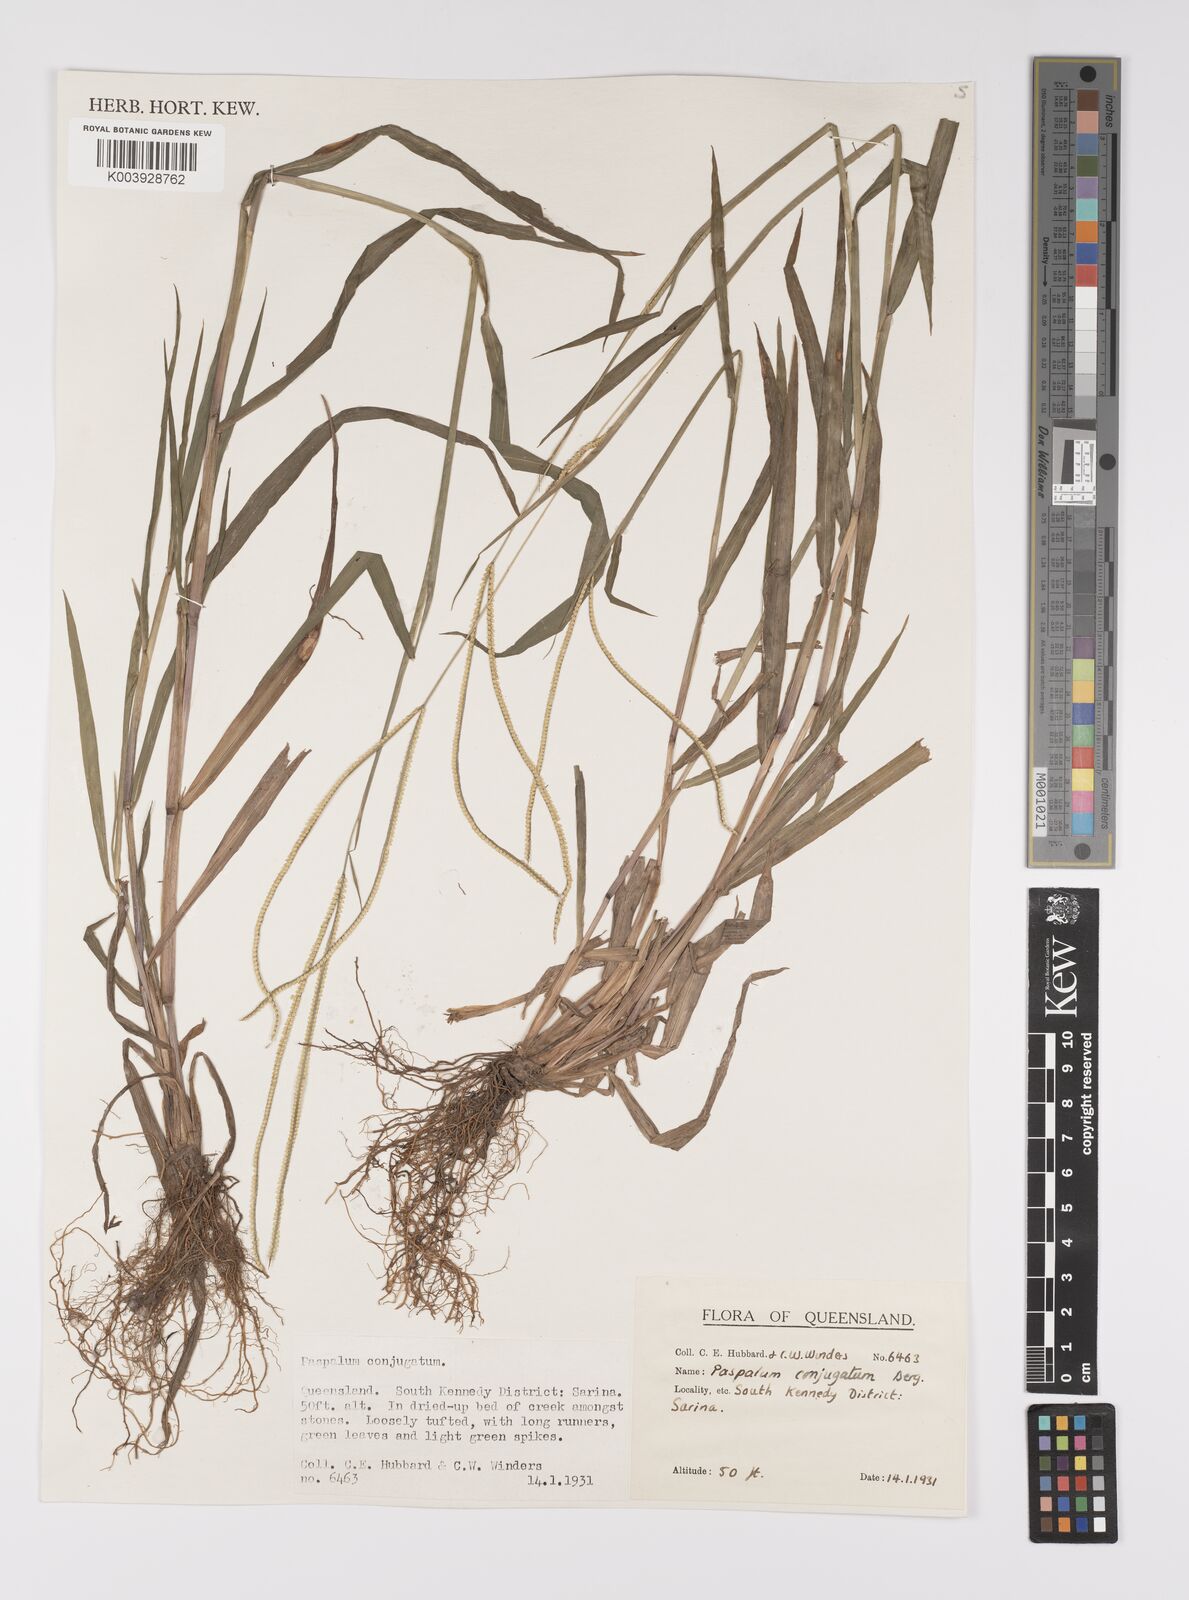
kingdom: Plantae
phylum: Tracheophyta
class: Liliopsida
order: Poales
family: Poaceae
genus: Paspalum
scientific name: Paspalum conjugatum
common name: Hilograss
